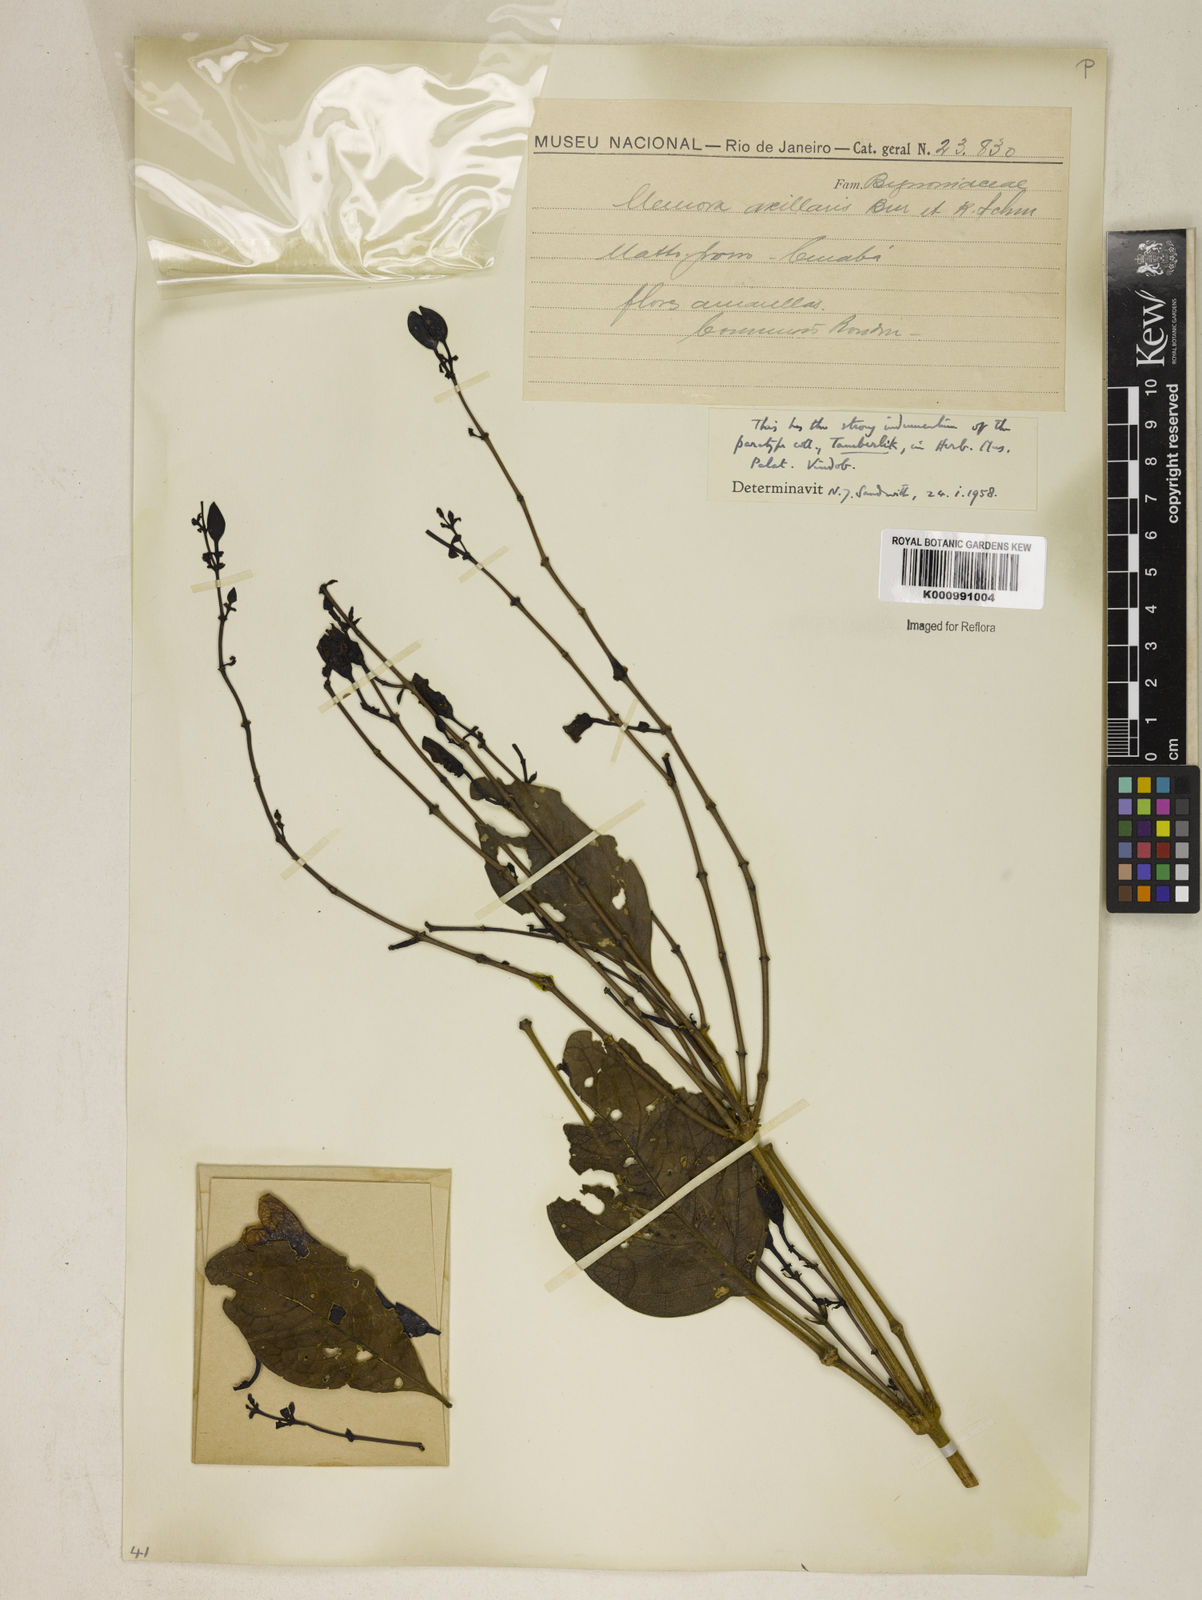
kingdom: Plantae
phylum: Tracheophyta
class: Magnoliopsida
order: Lamiales
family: Bignoniaceae
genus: Adenocalymma
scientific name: Adenocalymma axillare
